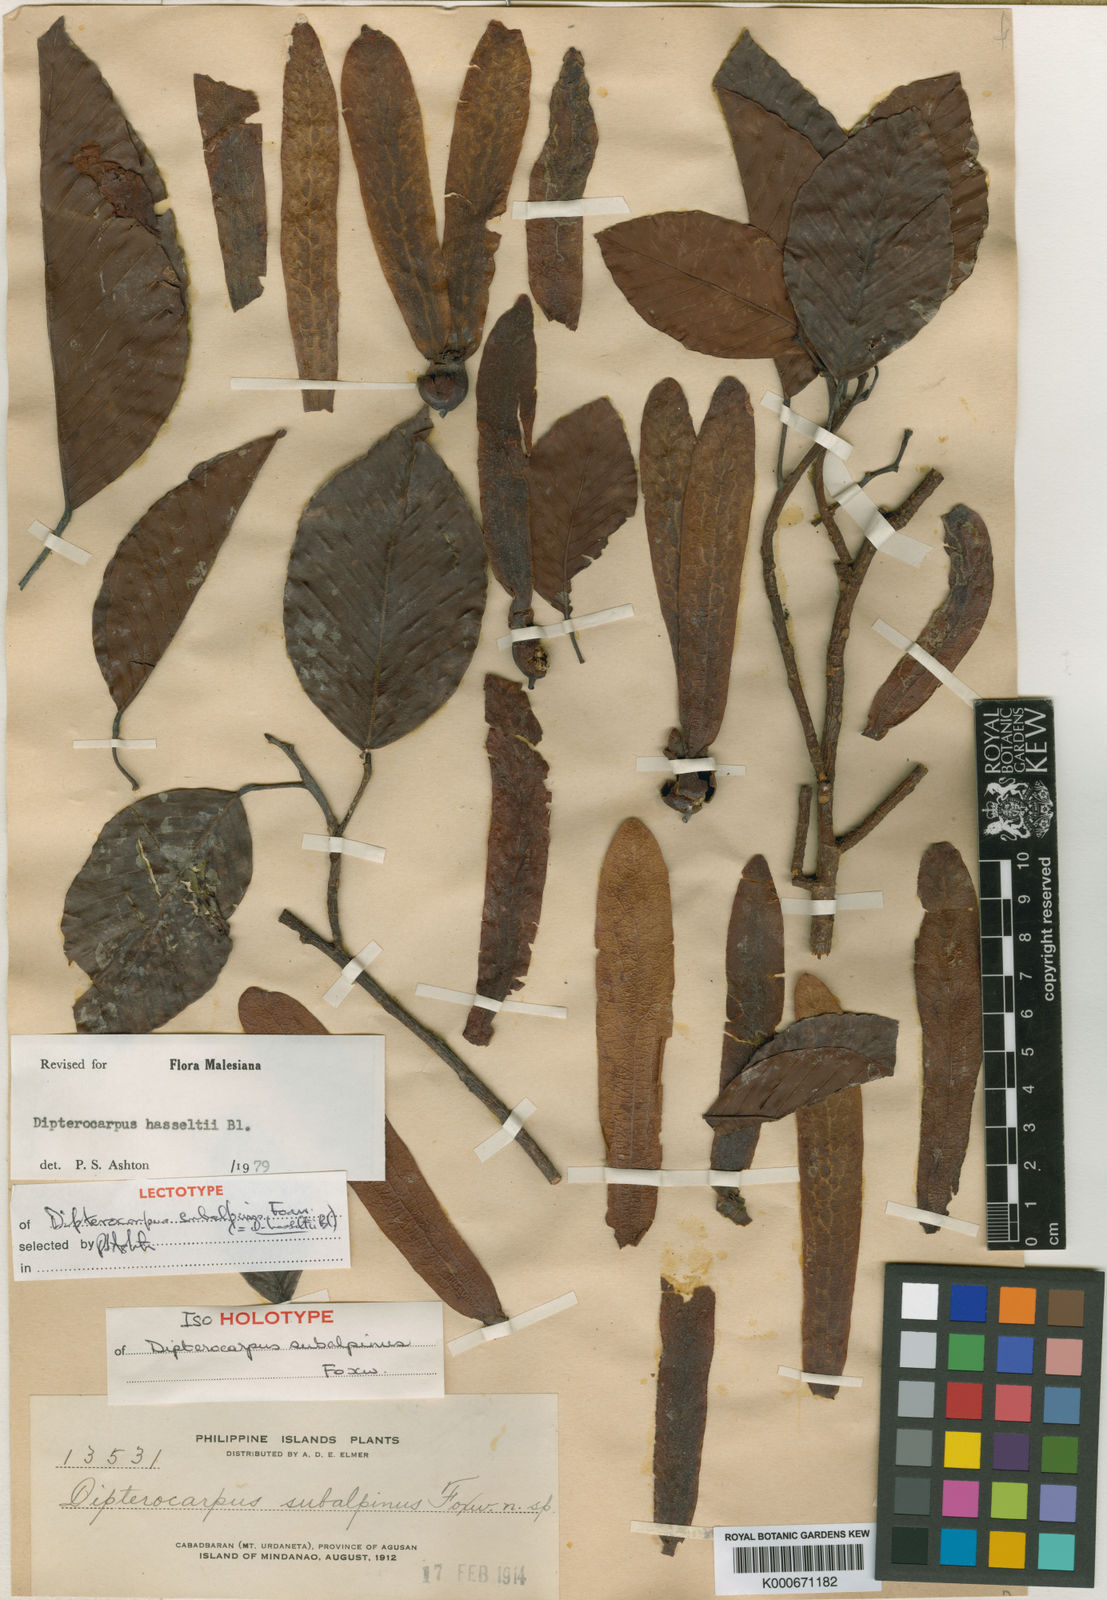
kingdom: Plantae
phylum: Tracheophyta
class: Magnoliopsida
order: Malvales
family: Dipterocarpaceae
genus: Dipterocarpus
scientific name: Dipterocarpus hasseltii
